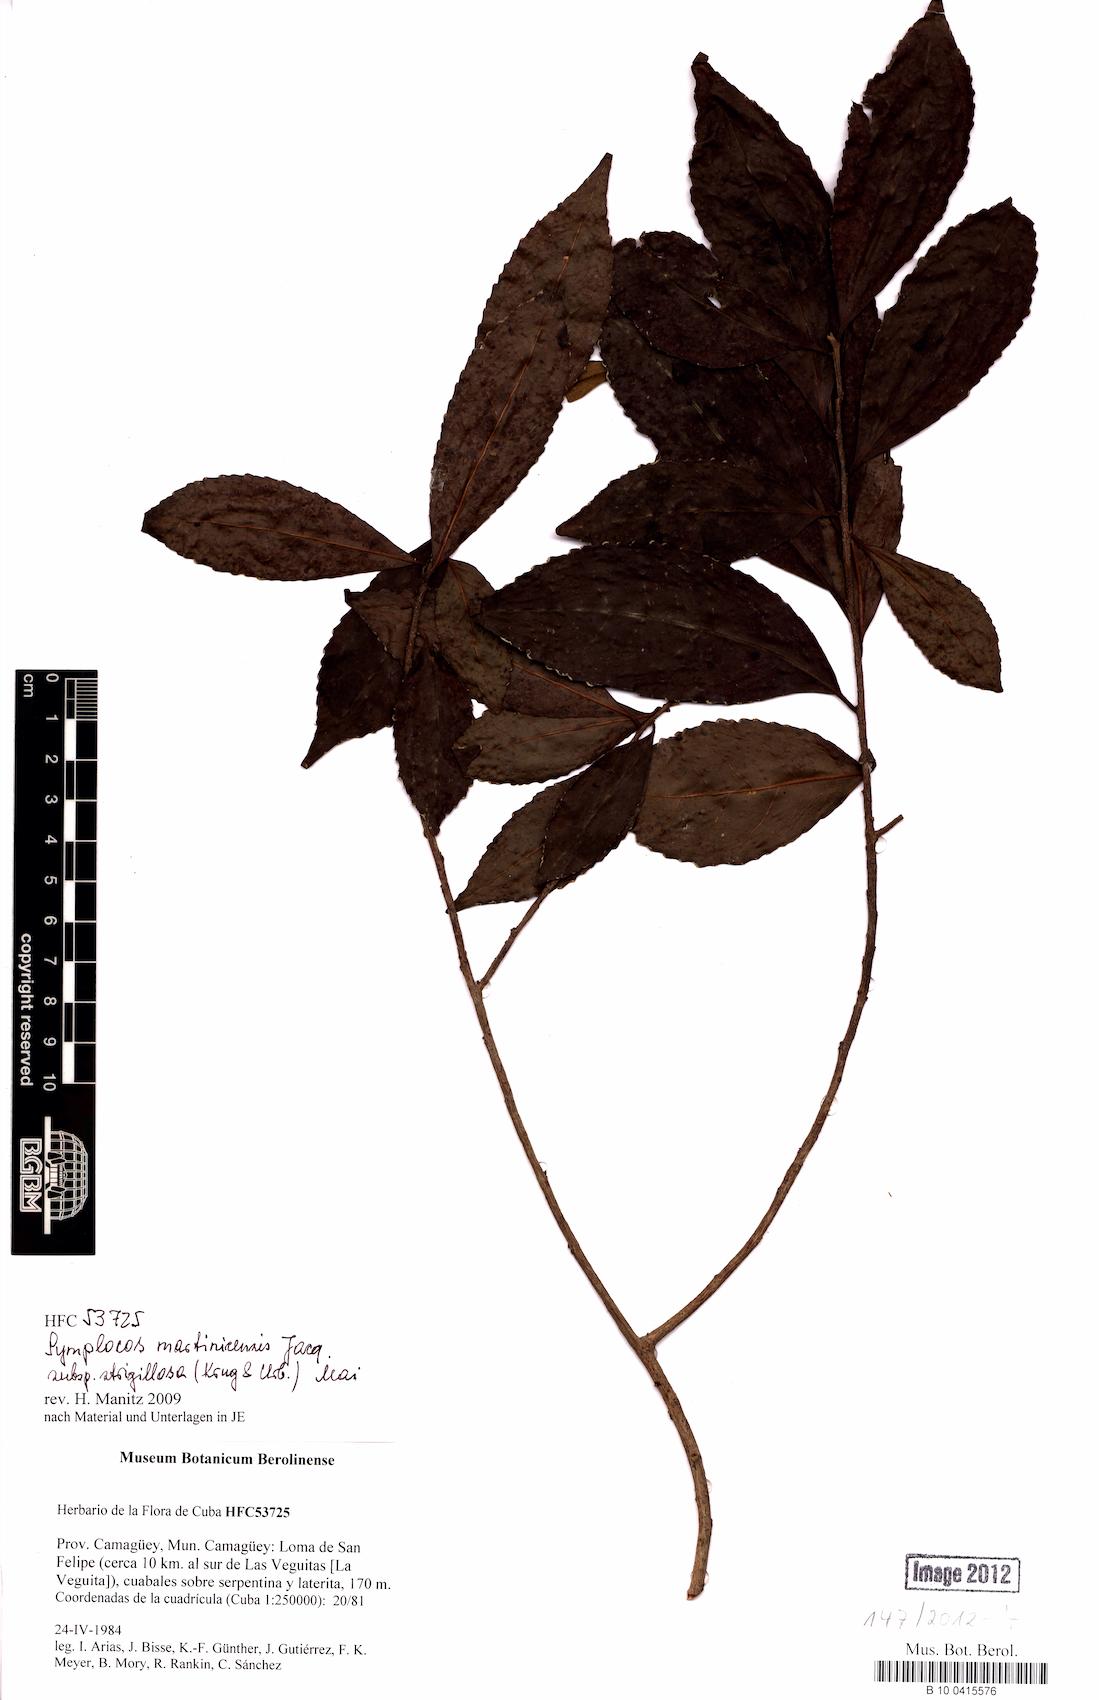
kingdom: Plantae
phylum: Tracheophyta
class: Magnoliopsida
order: Ericales
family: Symplocaceae
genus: Symplocos
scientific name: Symplocos jurgensenii
